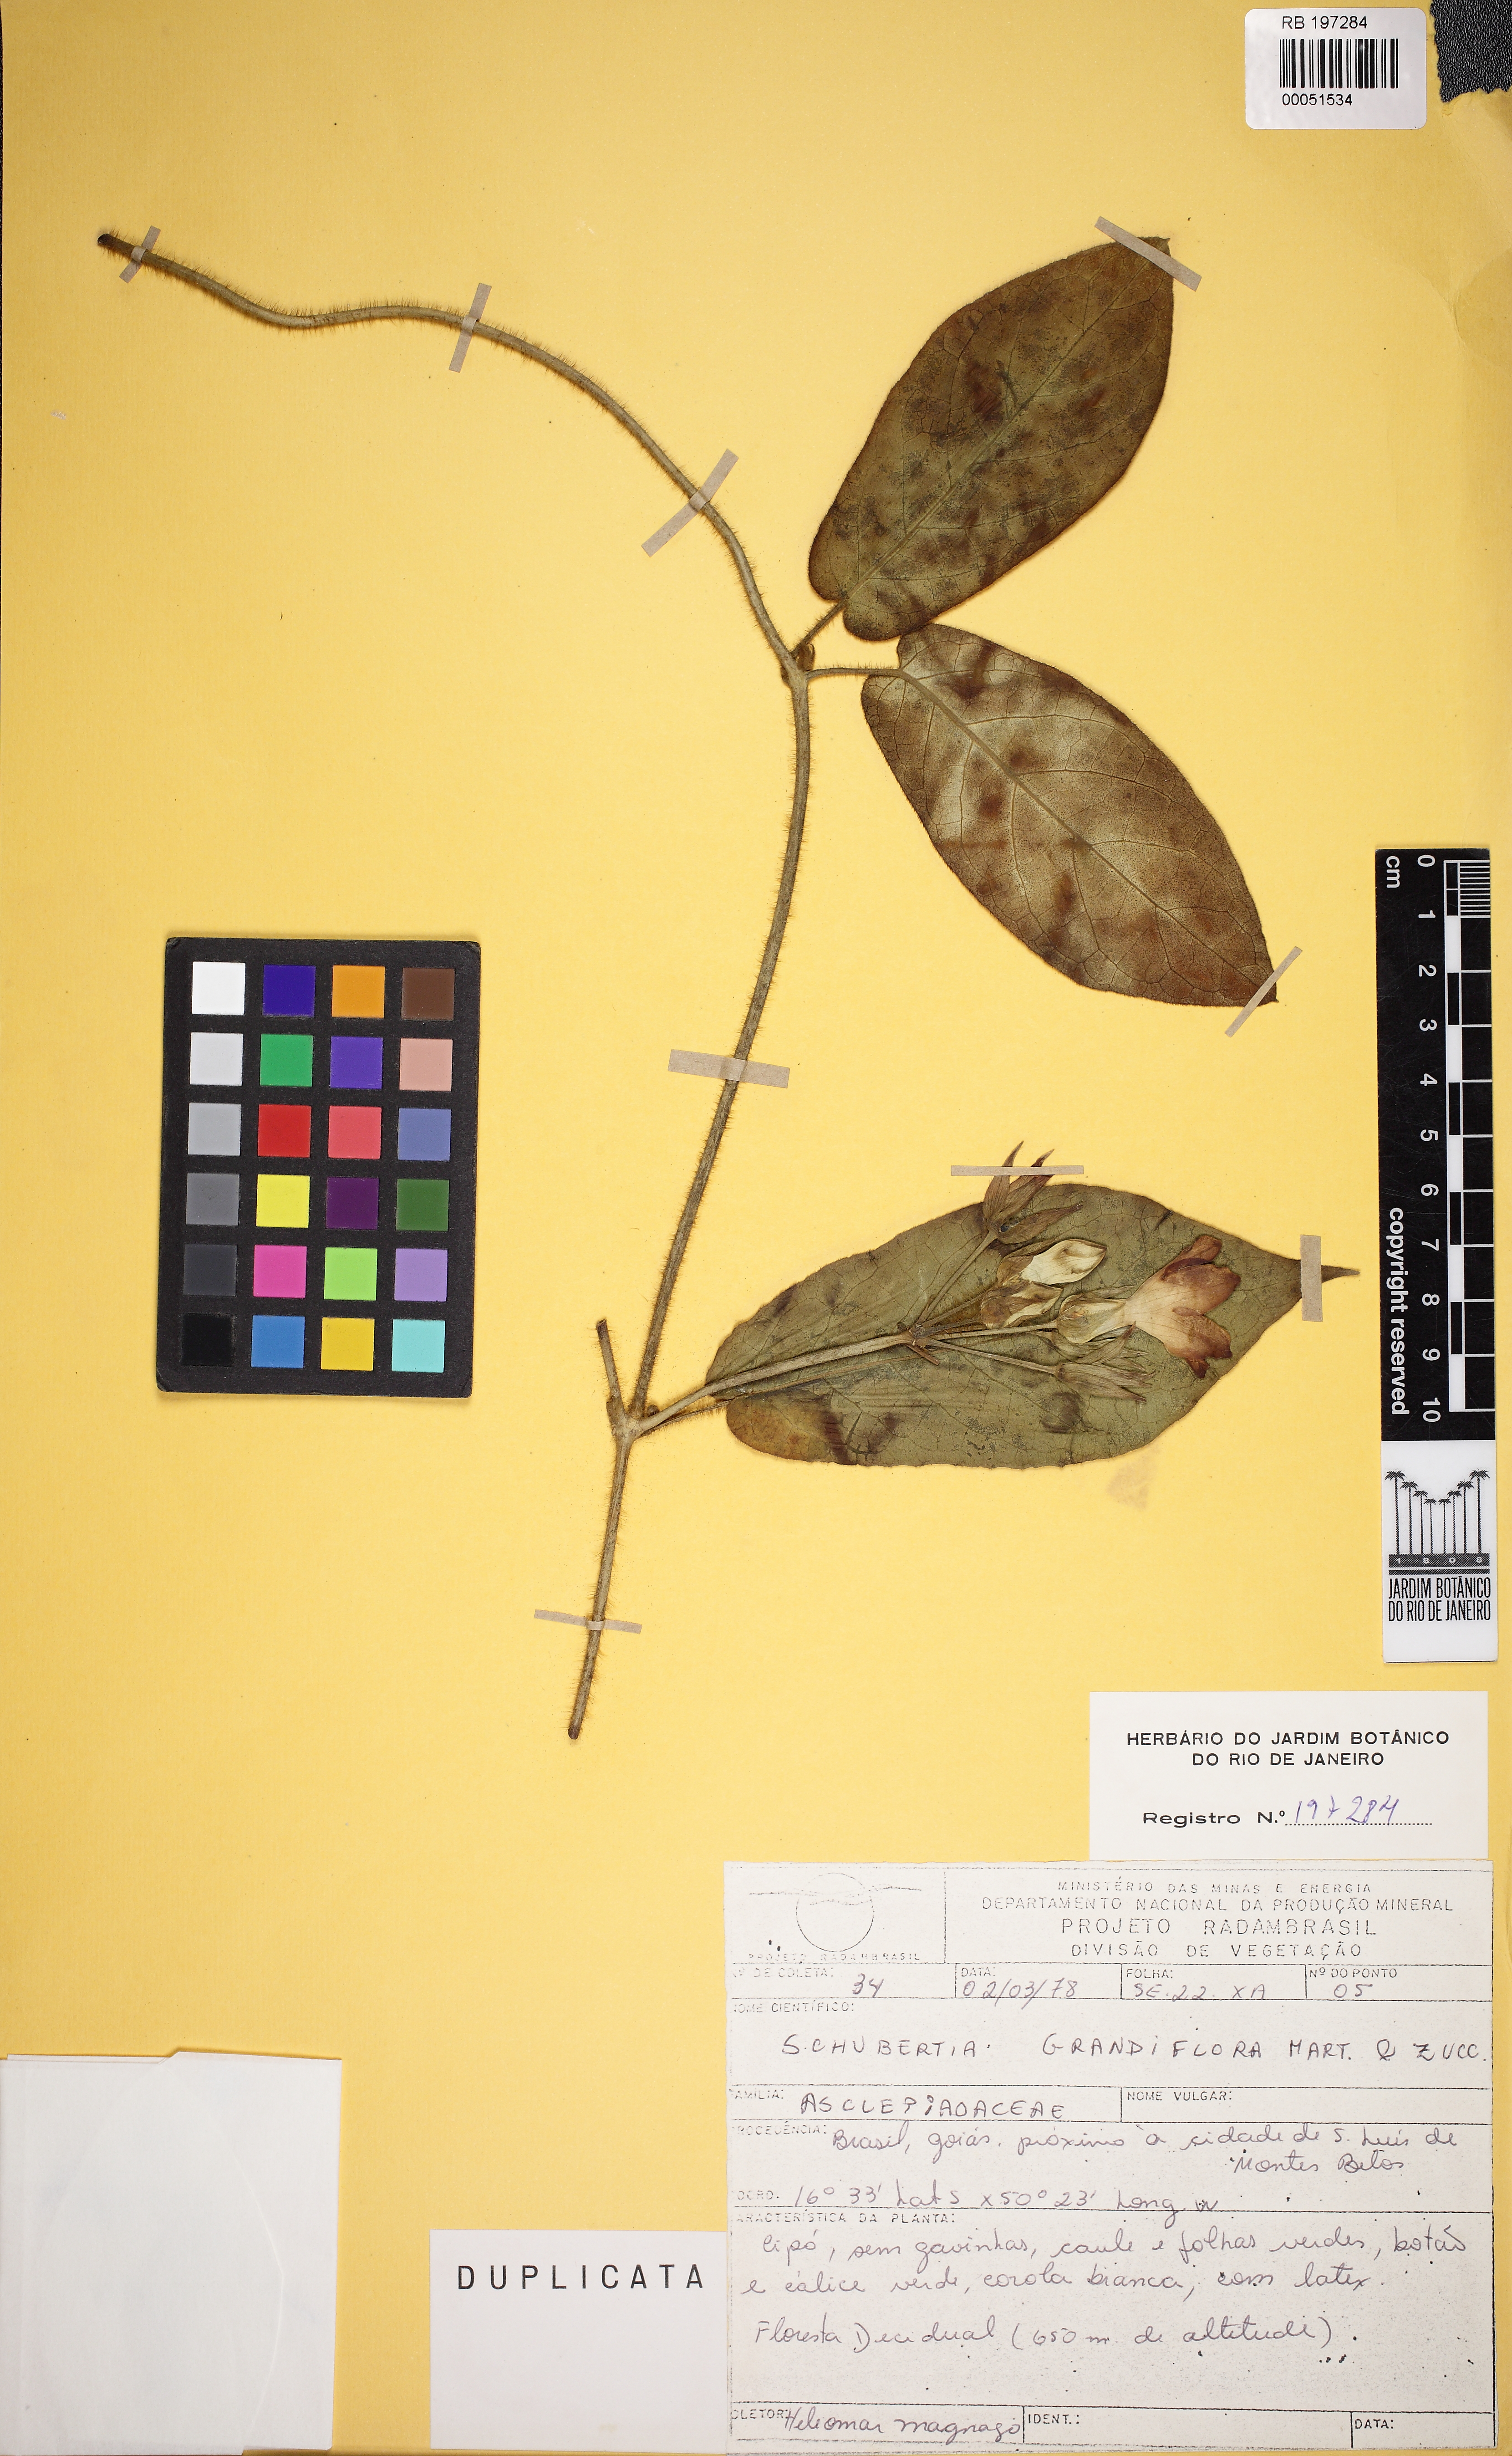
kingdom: Plantae
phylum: Tracheophyta
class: Magnoliopsida
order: Gentianales
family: Apocynaceae
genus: Macroscepis
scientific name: Macroscepis grandiflora
